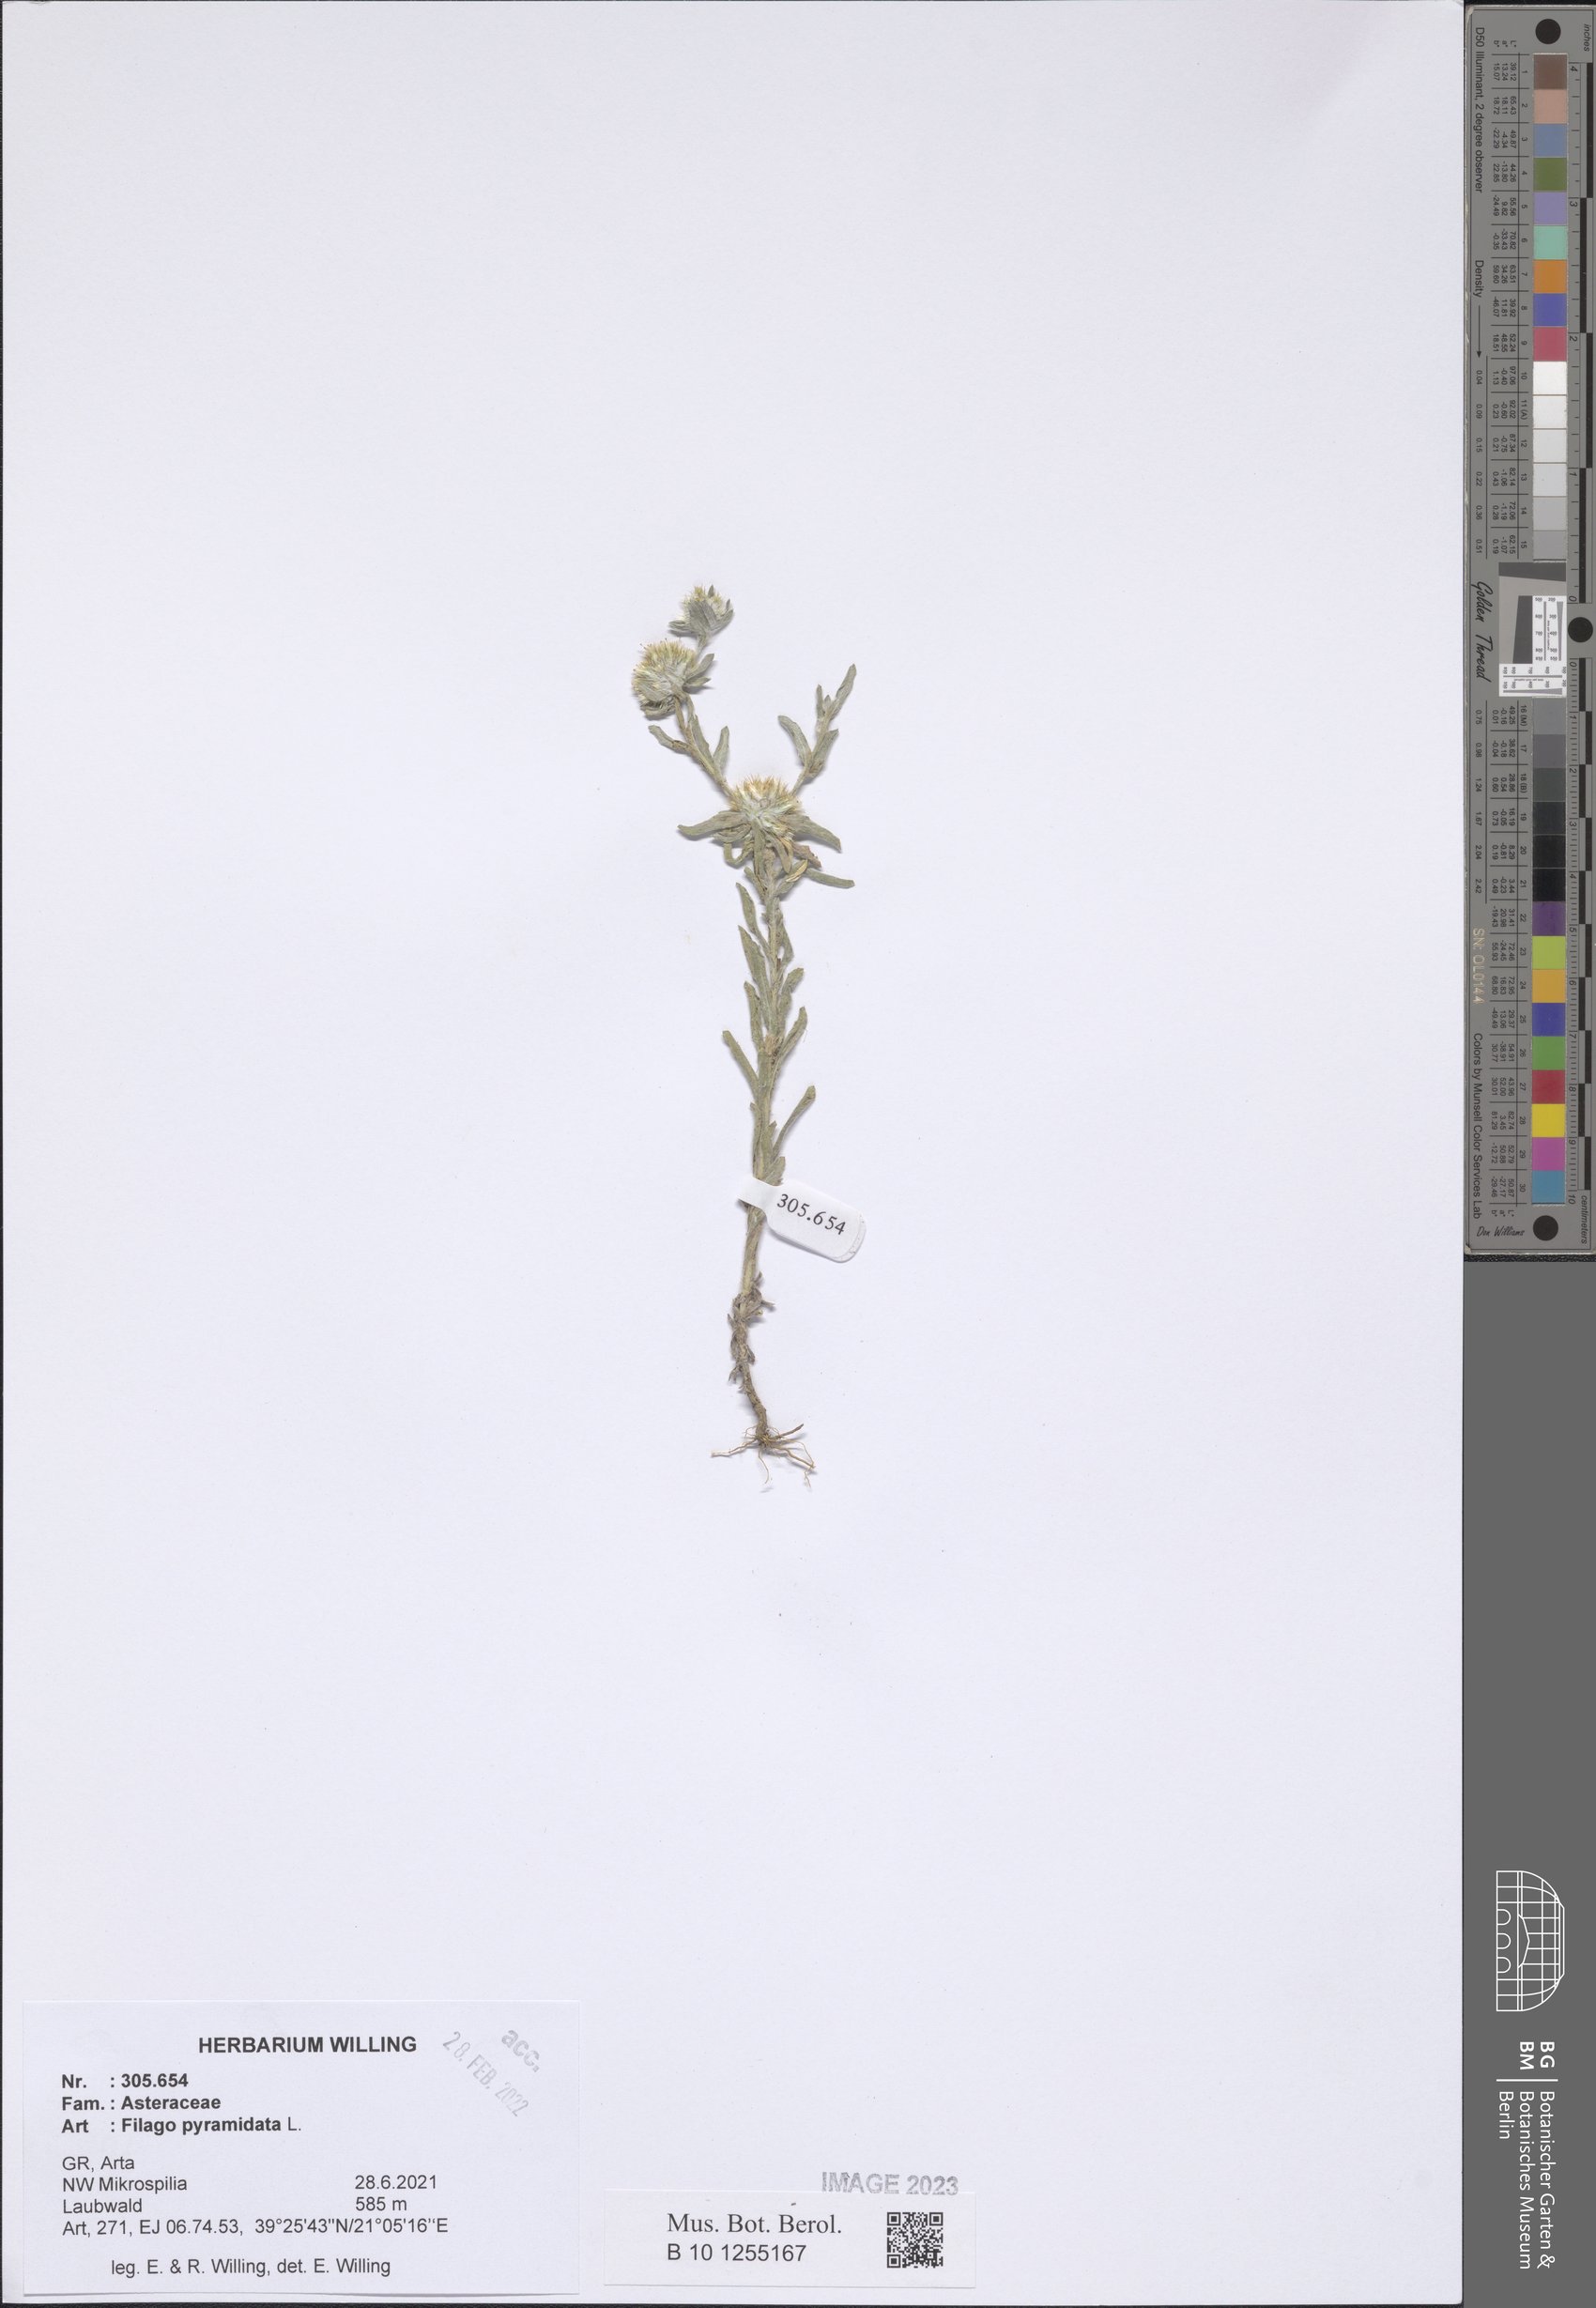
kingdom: Plantae
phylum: Tracheophyta
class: Magnoliopsida
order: Asterales
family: Asteraceae
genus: Filago
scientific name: Filago pyramidata
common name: Broad-leaved cudweed
